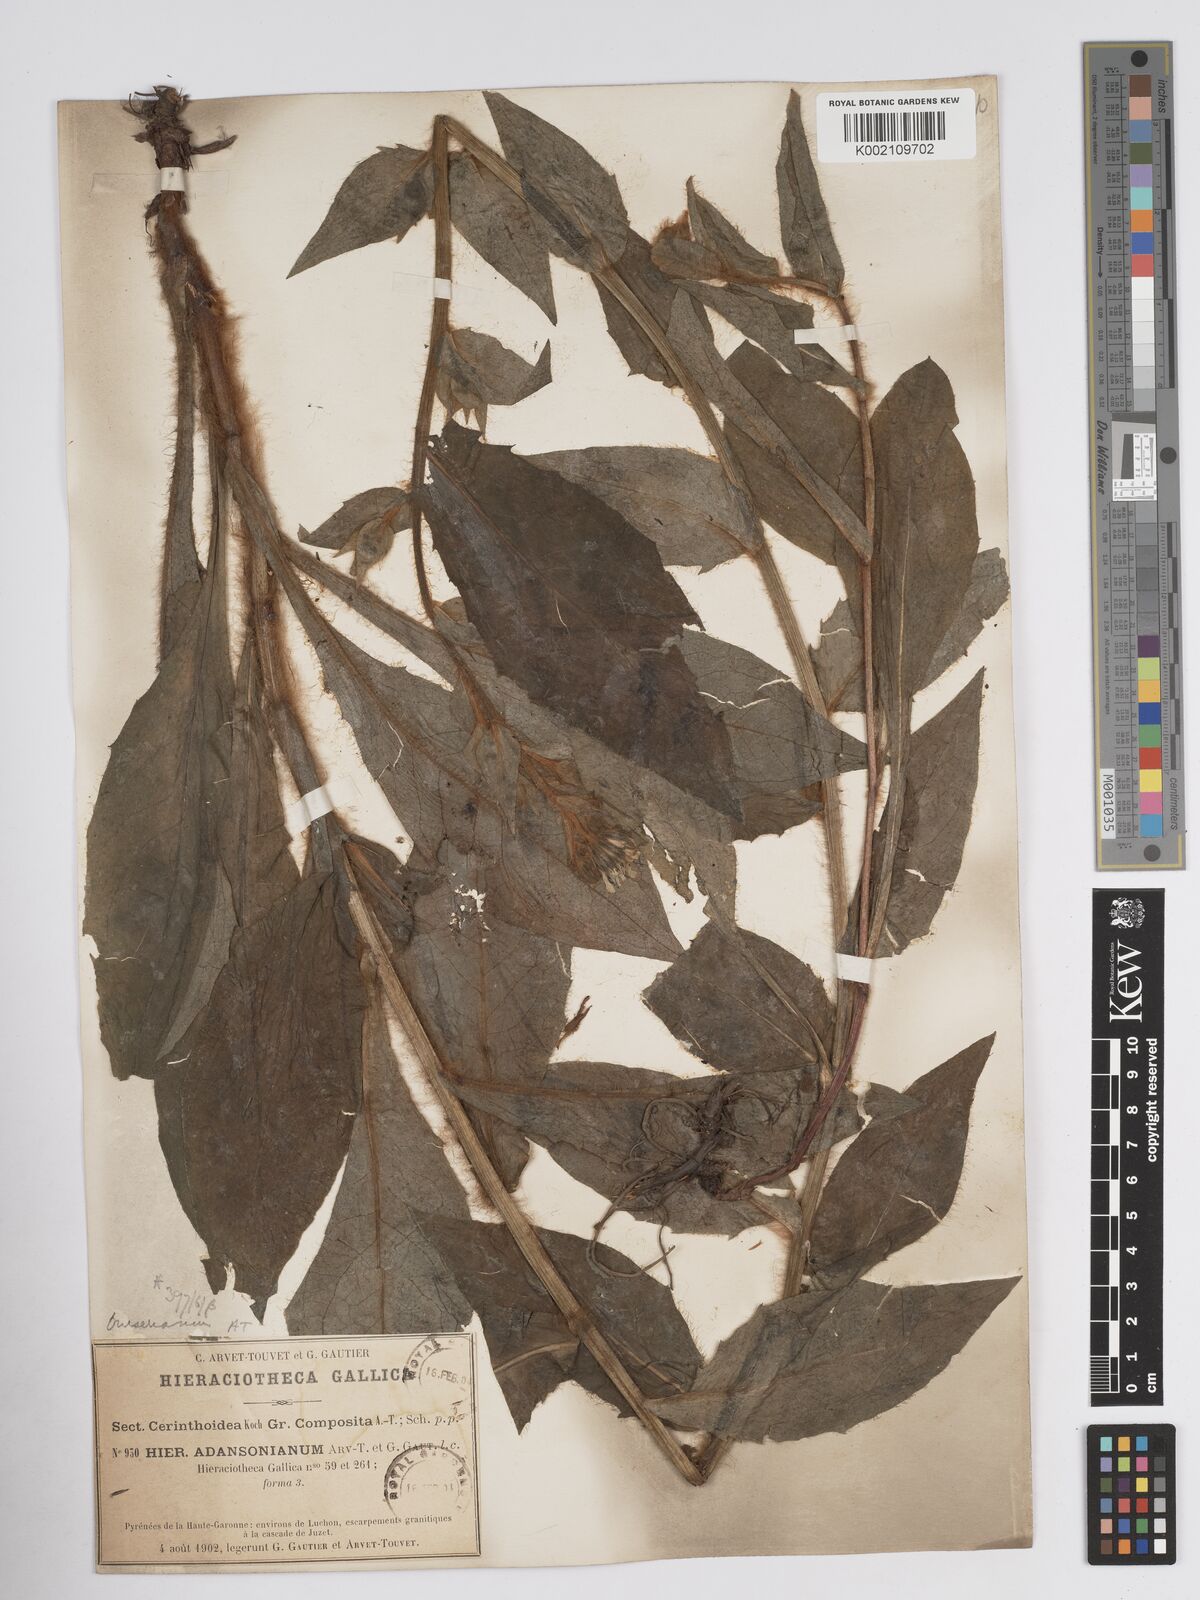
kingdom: Plantae
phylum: Tracheophyta
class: Magnoliopsida
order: Asterales
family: Asteraceae
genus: Crepis
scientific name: Crepis pyrenaica
